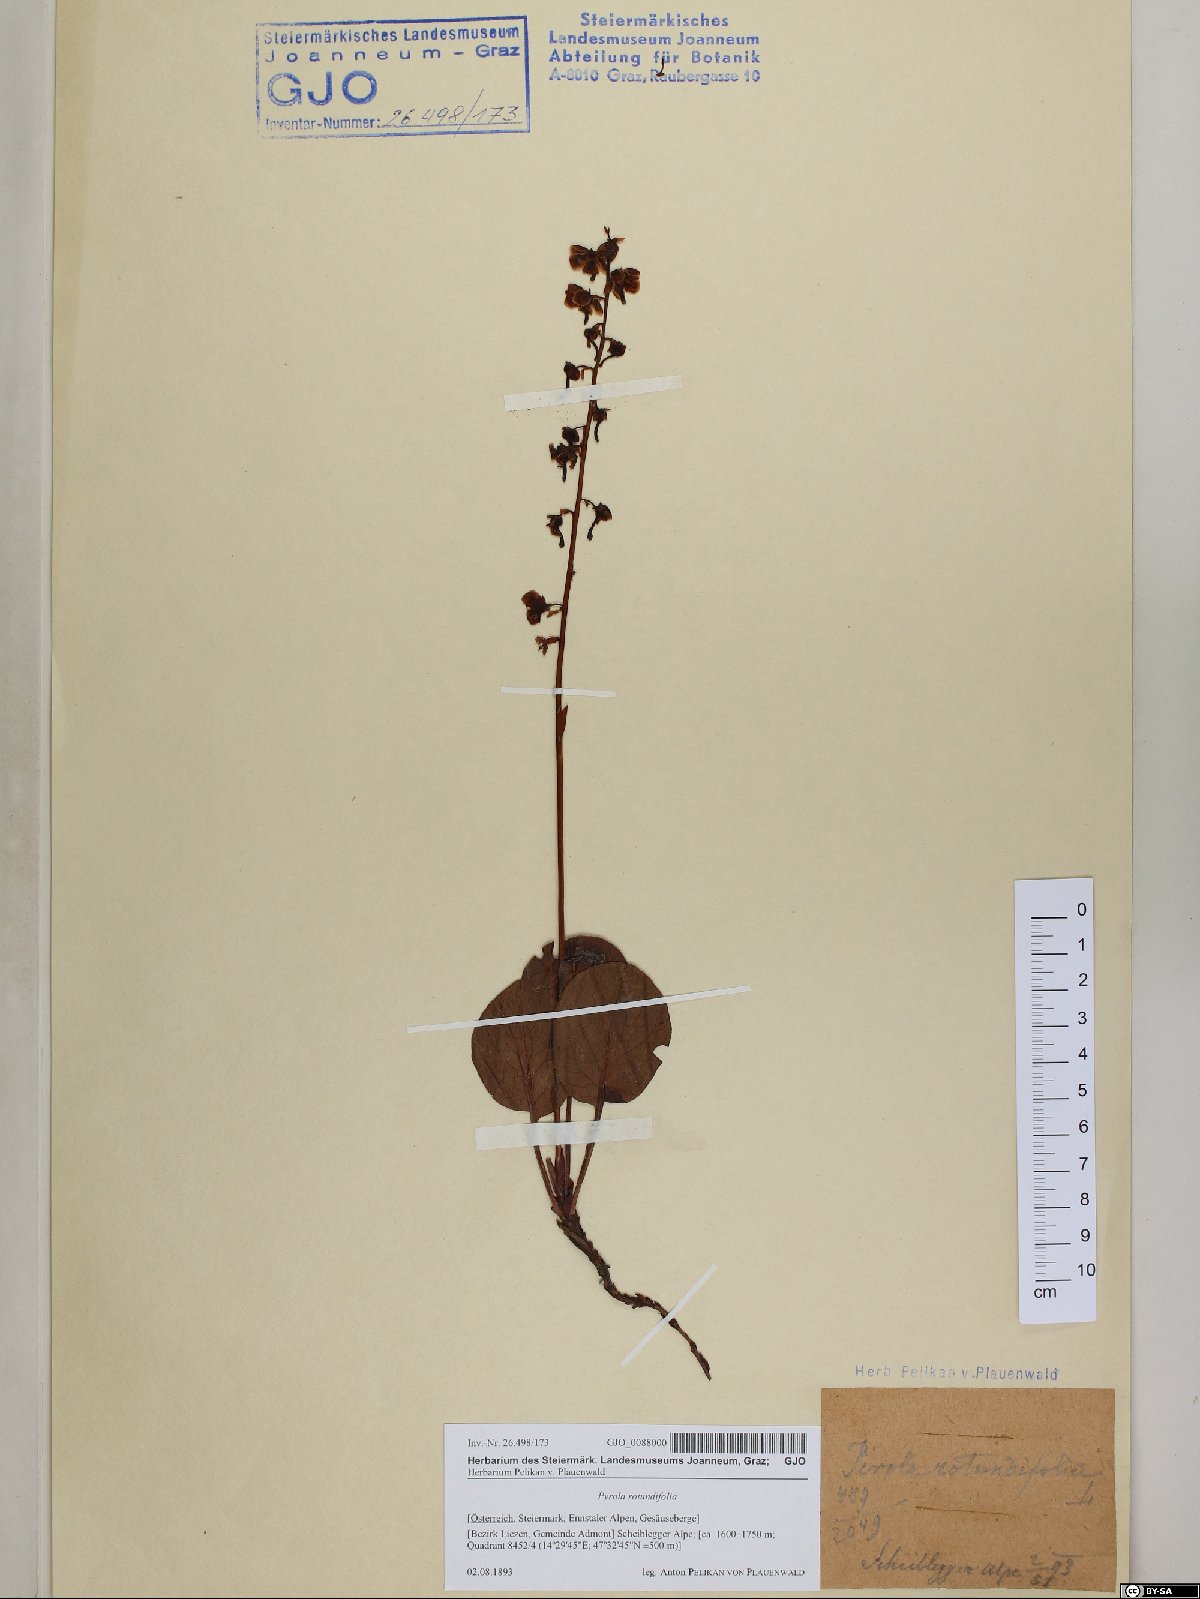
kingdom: Plantae
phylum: Tracheophyta
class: Magnoliopsida
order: Ericales
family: Ericaceae
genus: Pyrola
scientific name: Pyrola rotundifolia
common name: Round-leaved wintergreen
